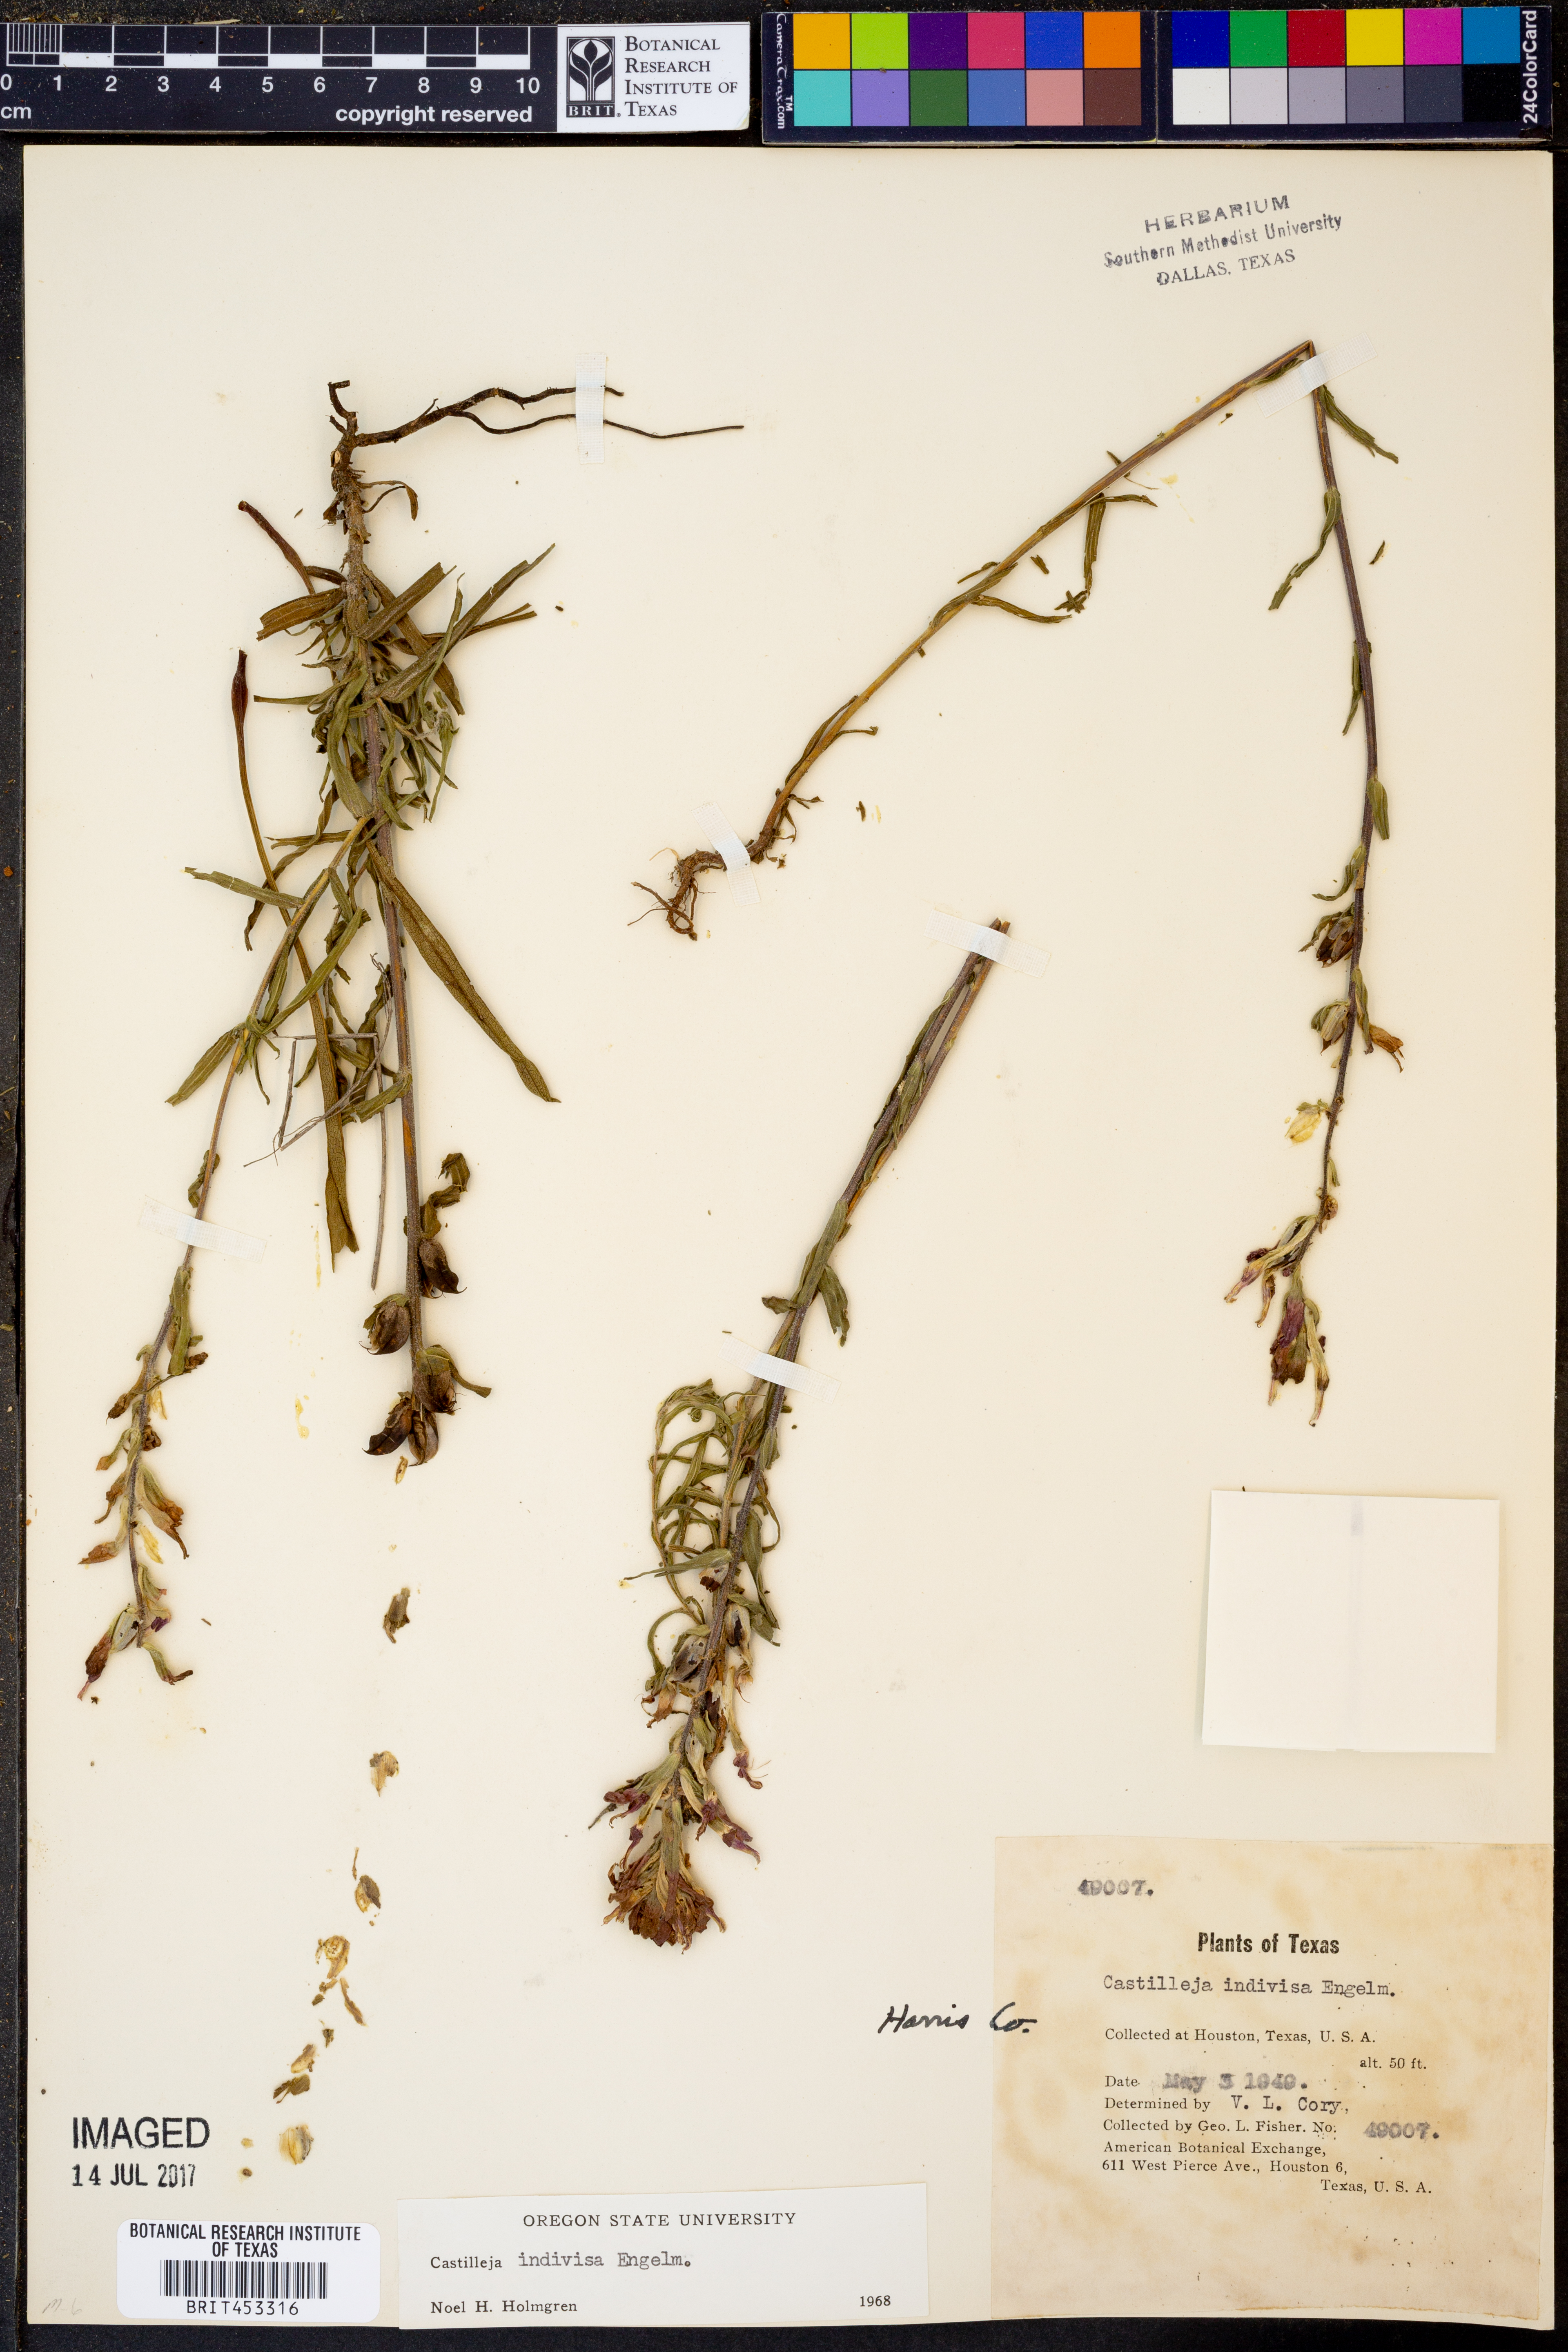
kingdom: Plantae
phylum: Tracheophyta
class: Magnoliopsida
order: Lamiales
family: Orobanchaceae
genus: Castilleja
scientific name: Castilleja indivisa
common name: Texas paintbrush
